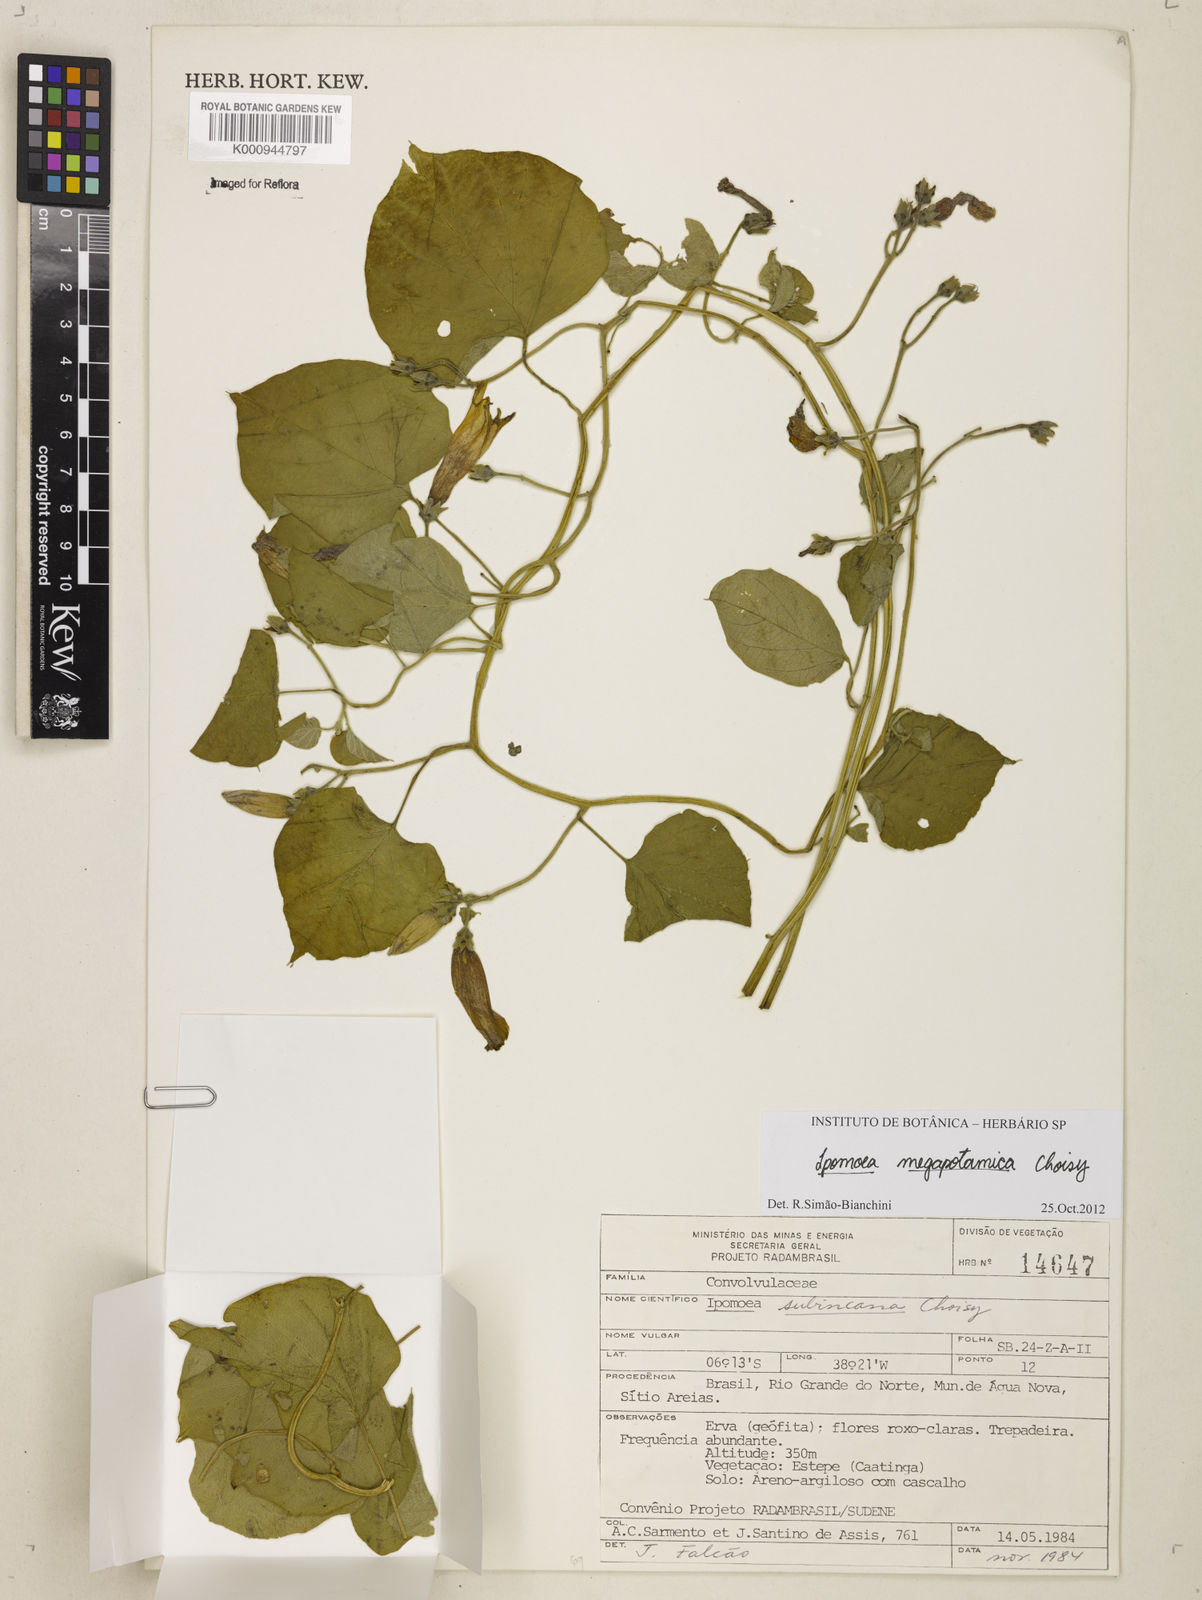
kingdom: Plantae
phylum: Tracheophyta
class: Magnoliopsida
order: Solanales
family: Convolvulaceae
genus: Ipomoea
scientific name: Ipomoea megapotamica
